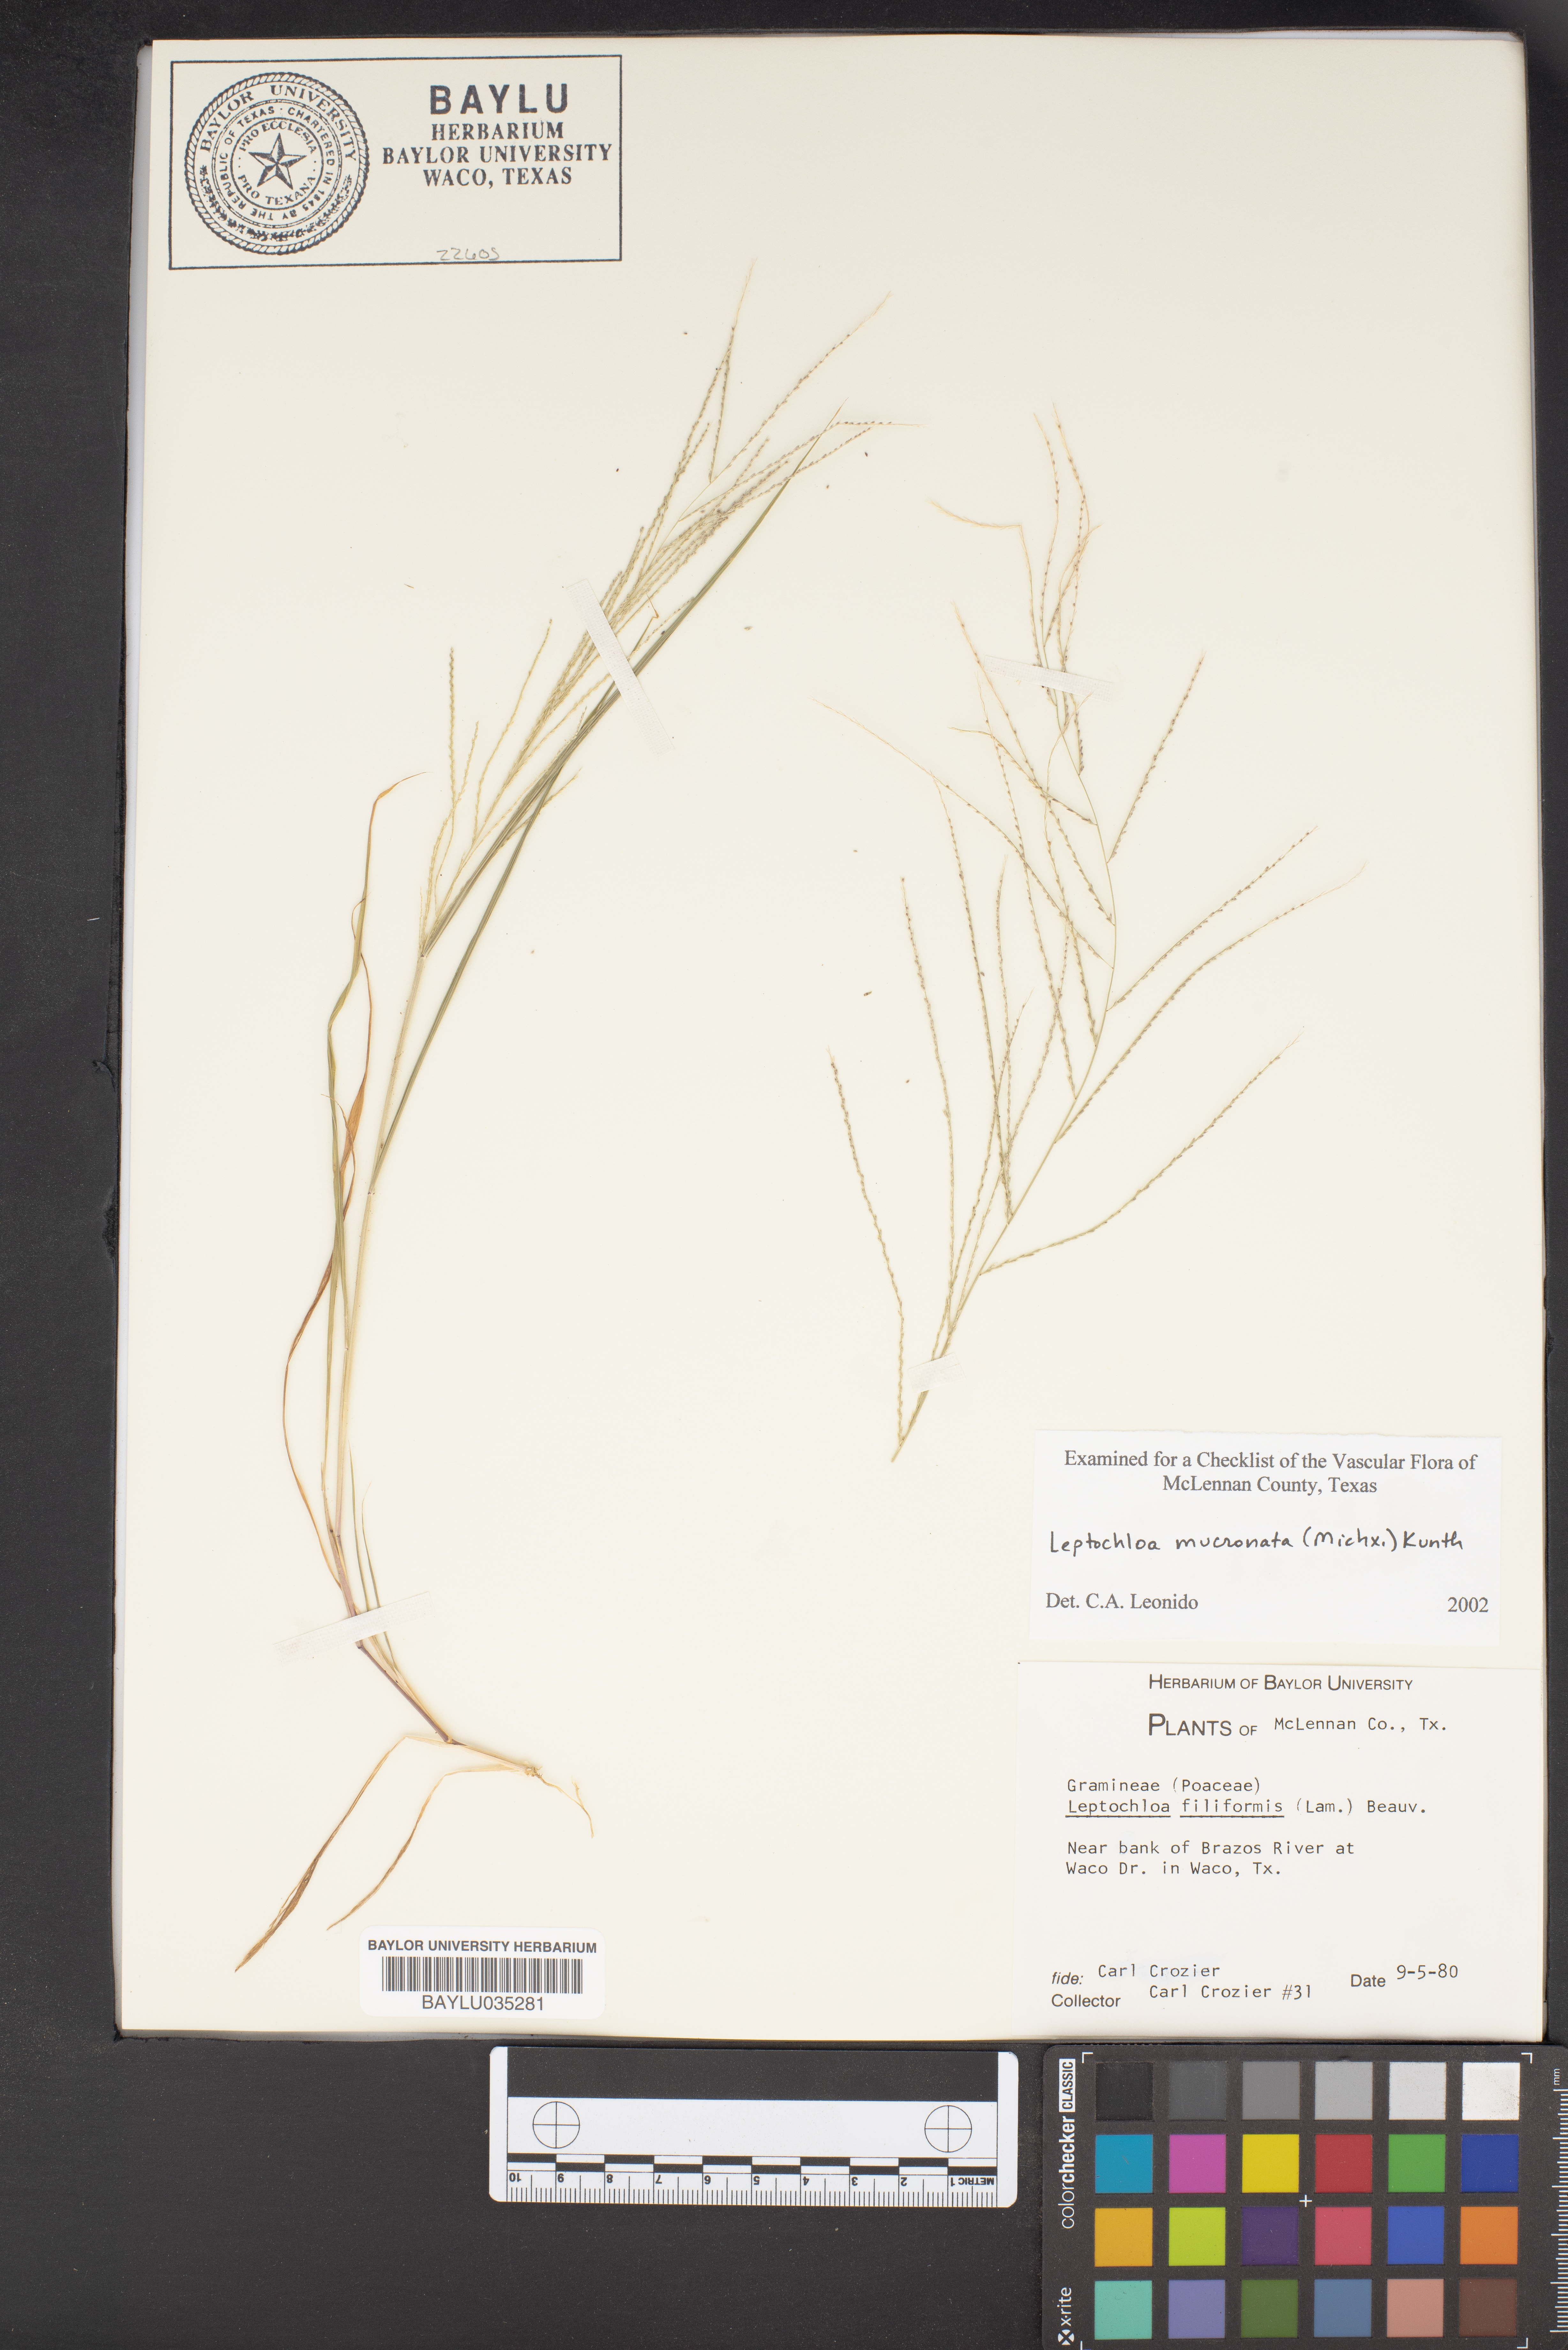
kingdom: Plantae
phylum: Tracheophyta
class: Liliopsida
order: Poales
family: Poaceae
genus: Leptochloa
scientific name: Leptochloa mucronata
